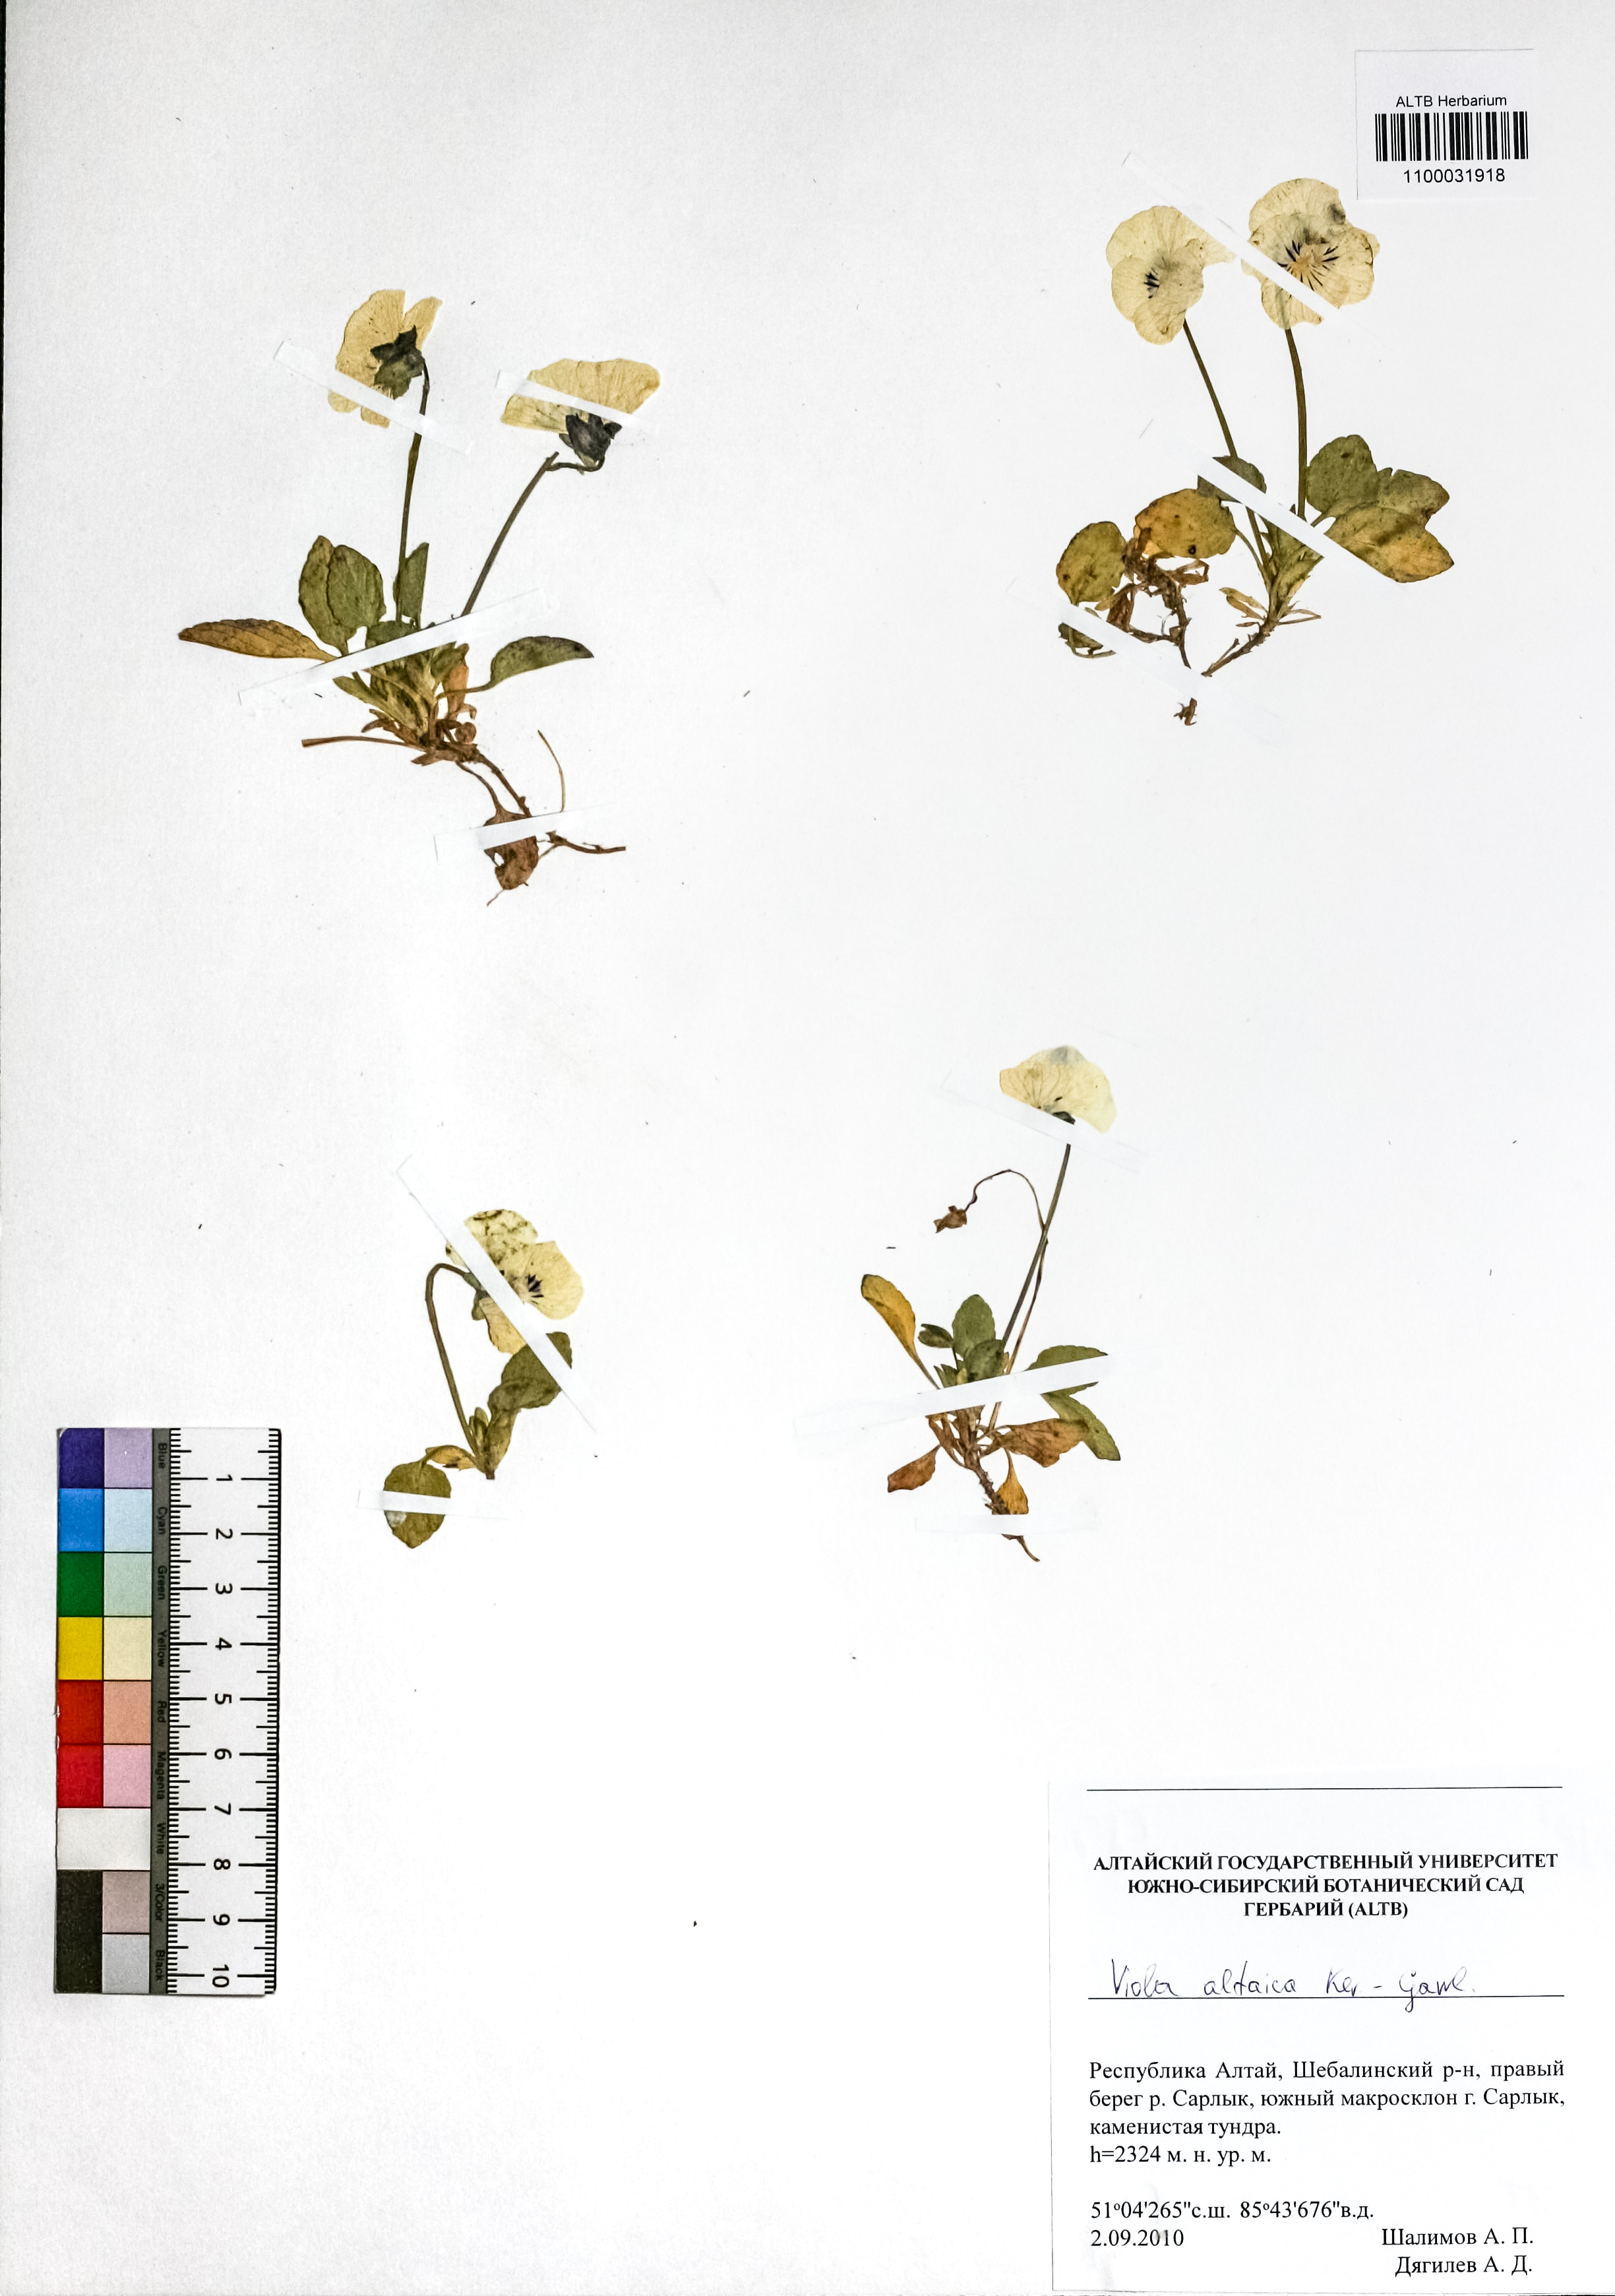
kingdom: Plantae
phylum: Tracheophyta
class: Magnoliopsida
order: Malpighiales
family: Violaceae
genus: Viola
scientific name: Viola altaica
